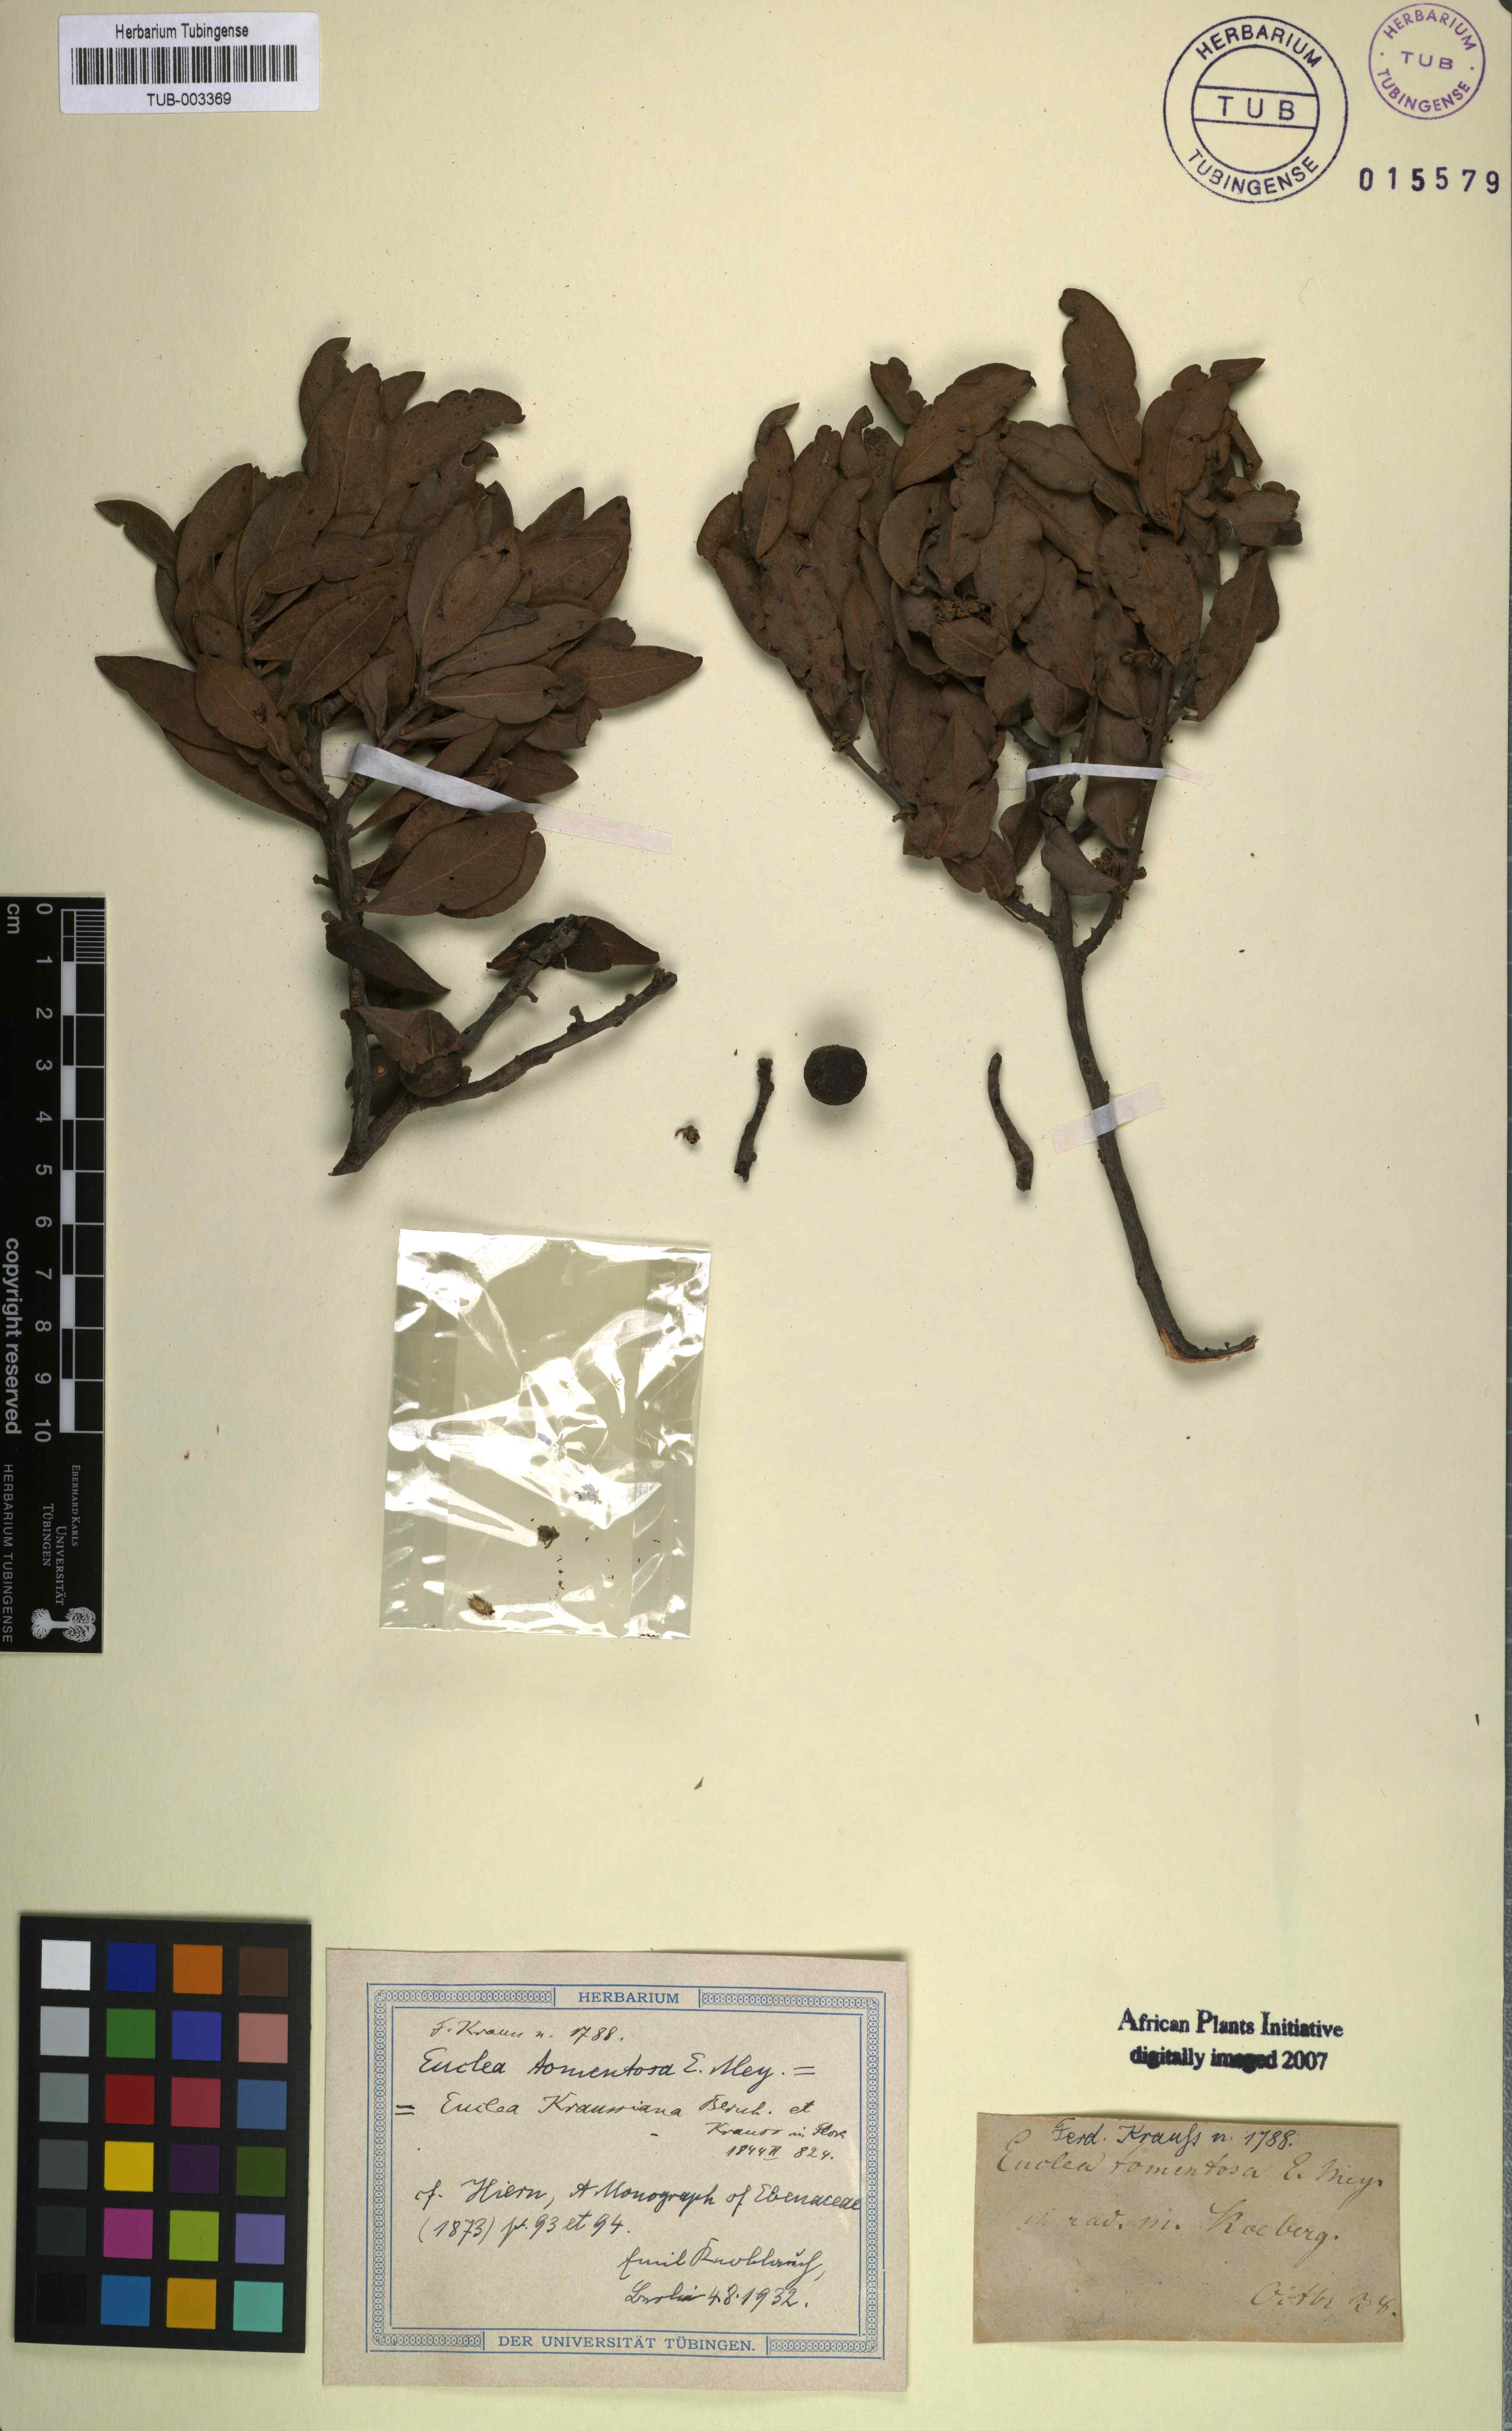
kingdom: Plantae
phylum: Tracheophyta
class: Magnoliopsida
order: Ericales
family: Ebenaceae
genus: Euclea
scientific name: Euclea tomentosa
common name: Honey guarri
